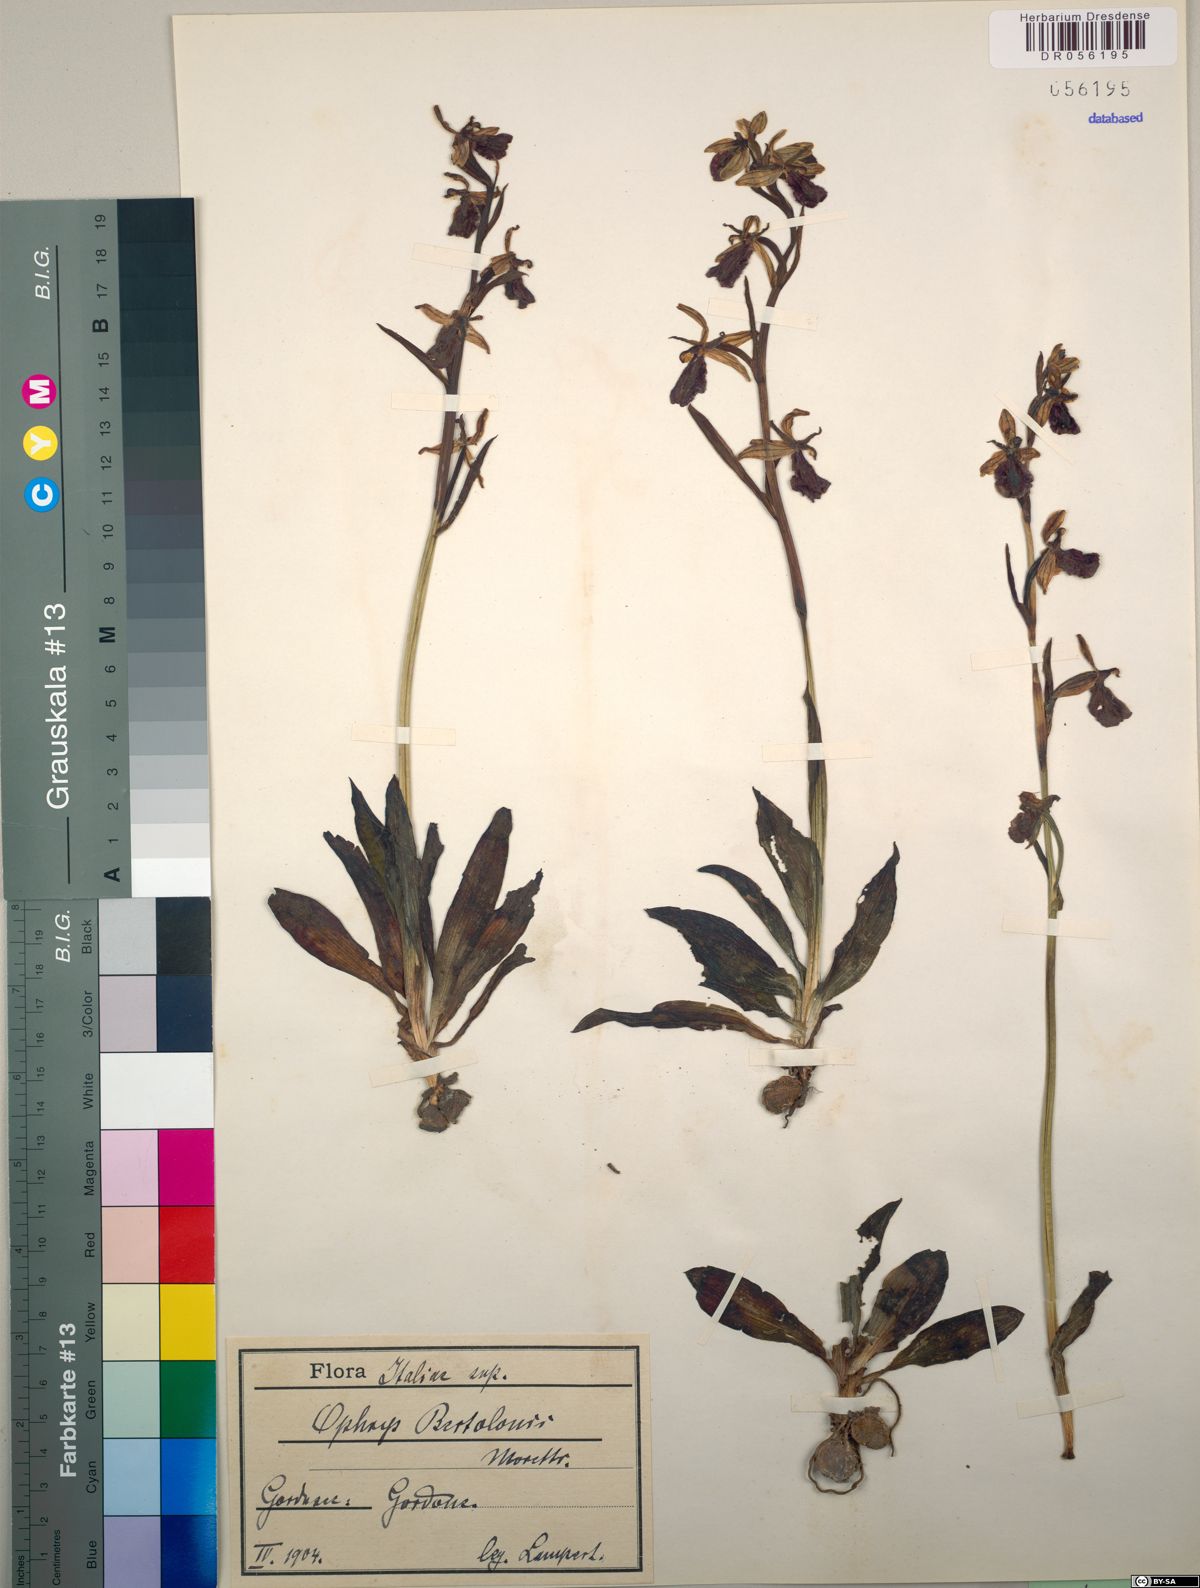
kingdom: Plantae
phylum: Tracheophyta
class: Liliopsida
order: Asparagales
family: Orchidaceae
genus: Ophrys
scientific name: Ophrys bertolonii
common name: Bertoloni's bee orchid
